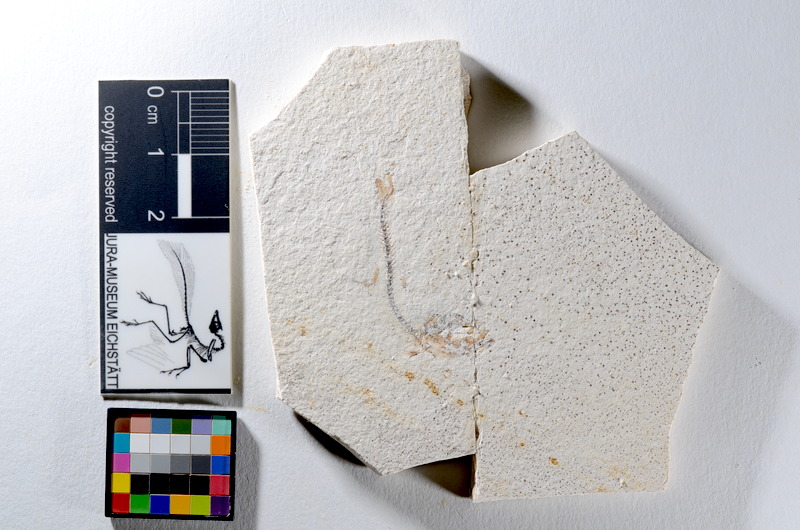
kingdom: Animalia
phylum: Chordata
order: Salmoniformes
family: Orthogonikleithridae
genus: Orthogonikleithrus
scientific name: Orthogonikleithrus hoelli
